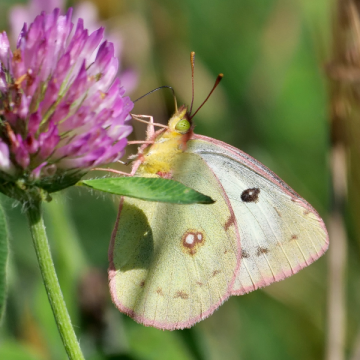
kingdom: Animalia
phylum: Arthropoda
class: Insecta
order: Lepidoptera
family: Pieridae
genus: Colias
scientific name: Colias philodice
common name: Clouded Sulphur
